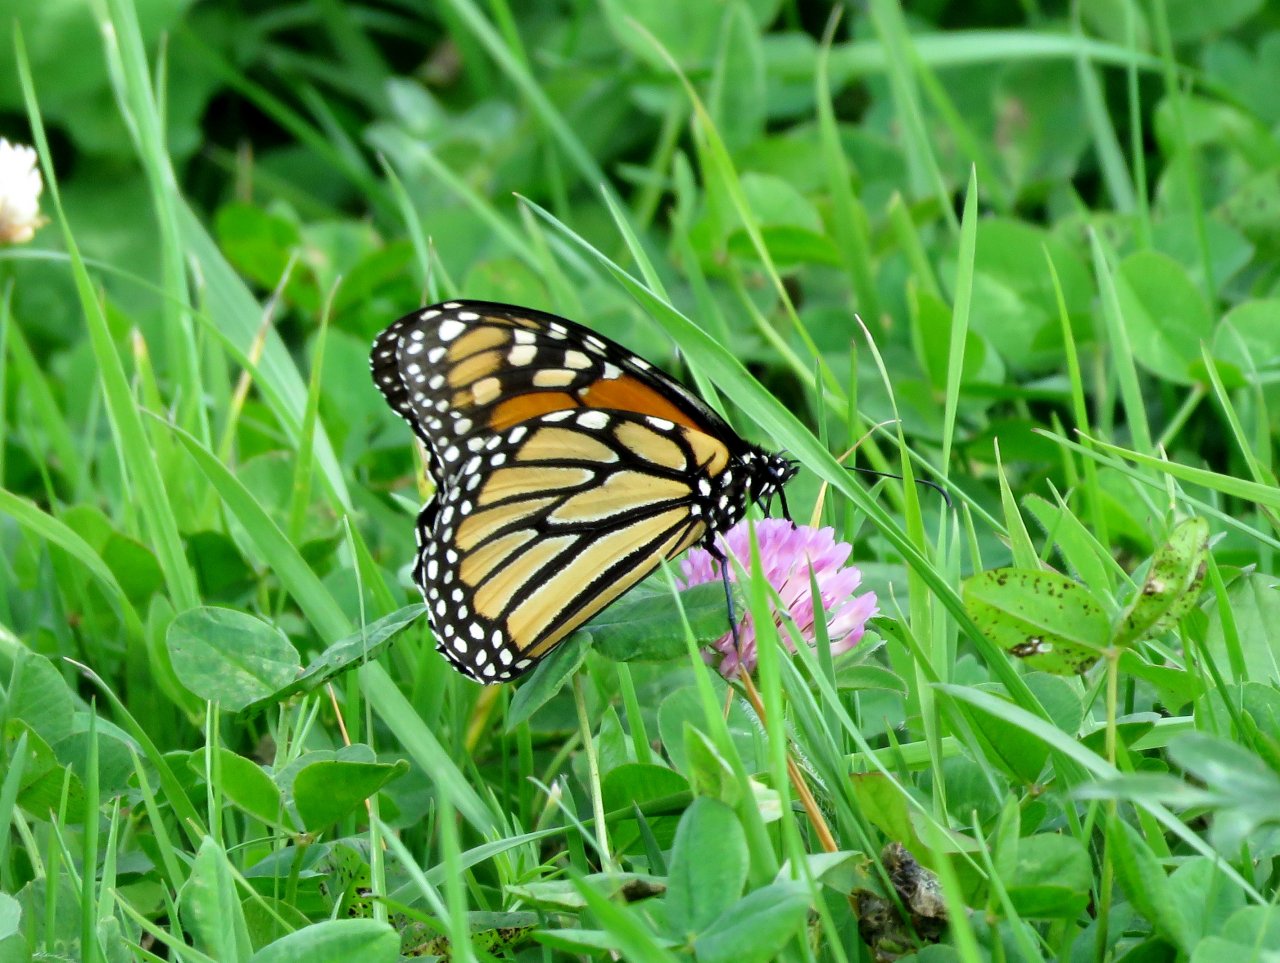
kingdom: Animalia
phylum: Arthropoda
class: Insecta
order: Lepidoptera
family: Nymphalidae
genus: Danaus
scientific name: Danaus plexippus
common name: Monarch
